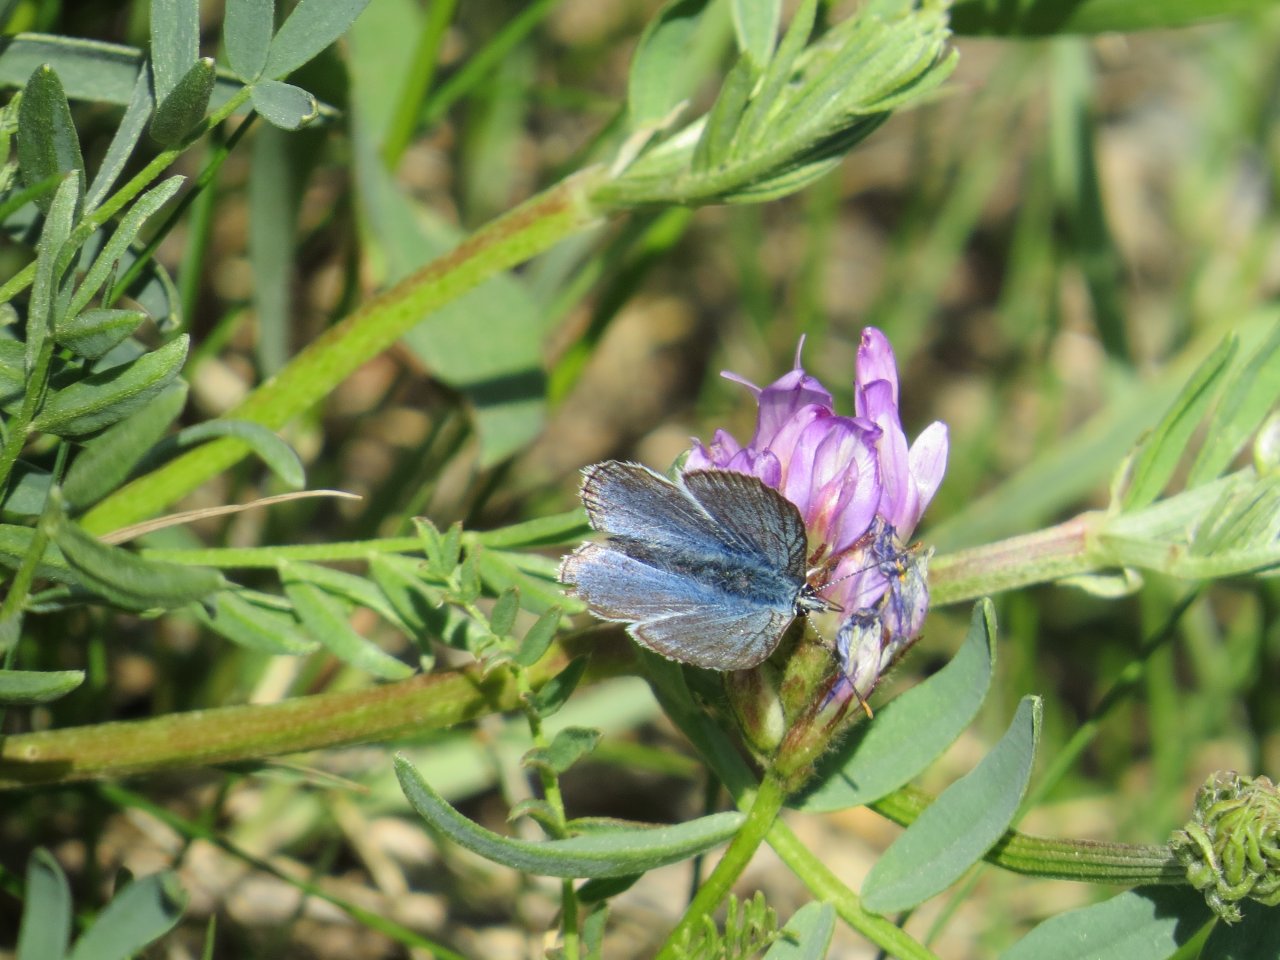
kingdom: Animalia
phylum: Arthropoda
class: Insecta
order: Lepidoptera
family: Lycaenidae
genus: Plebejus
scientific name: Plebejus saepiolus
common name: Greenish Blue
